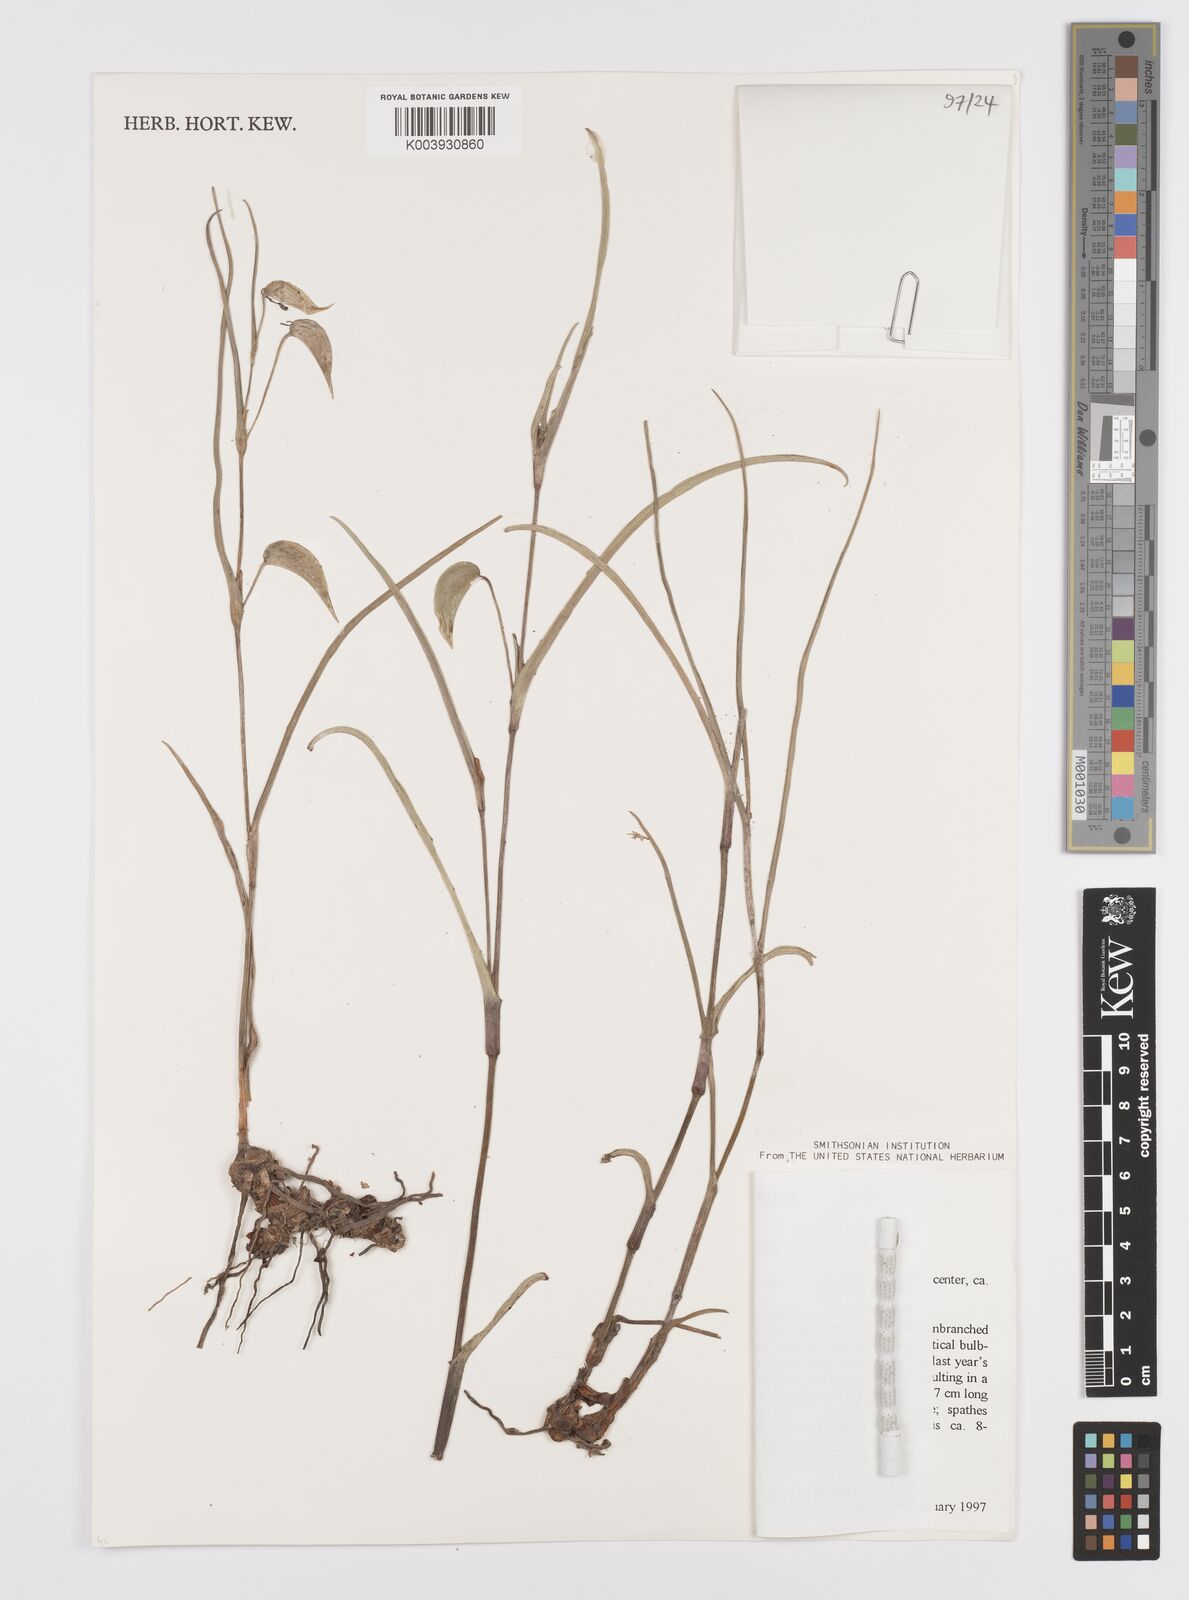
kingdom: Plantae
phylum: Tracheophyta
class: Liliopsida
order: Commelinales
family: Commelinaceae
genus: Commelina
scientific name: Commelina welwitschii
